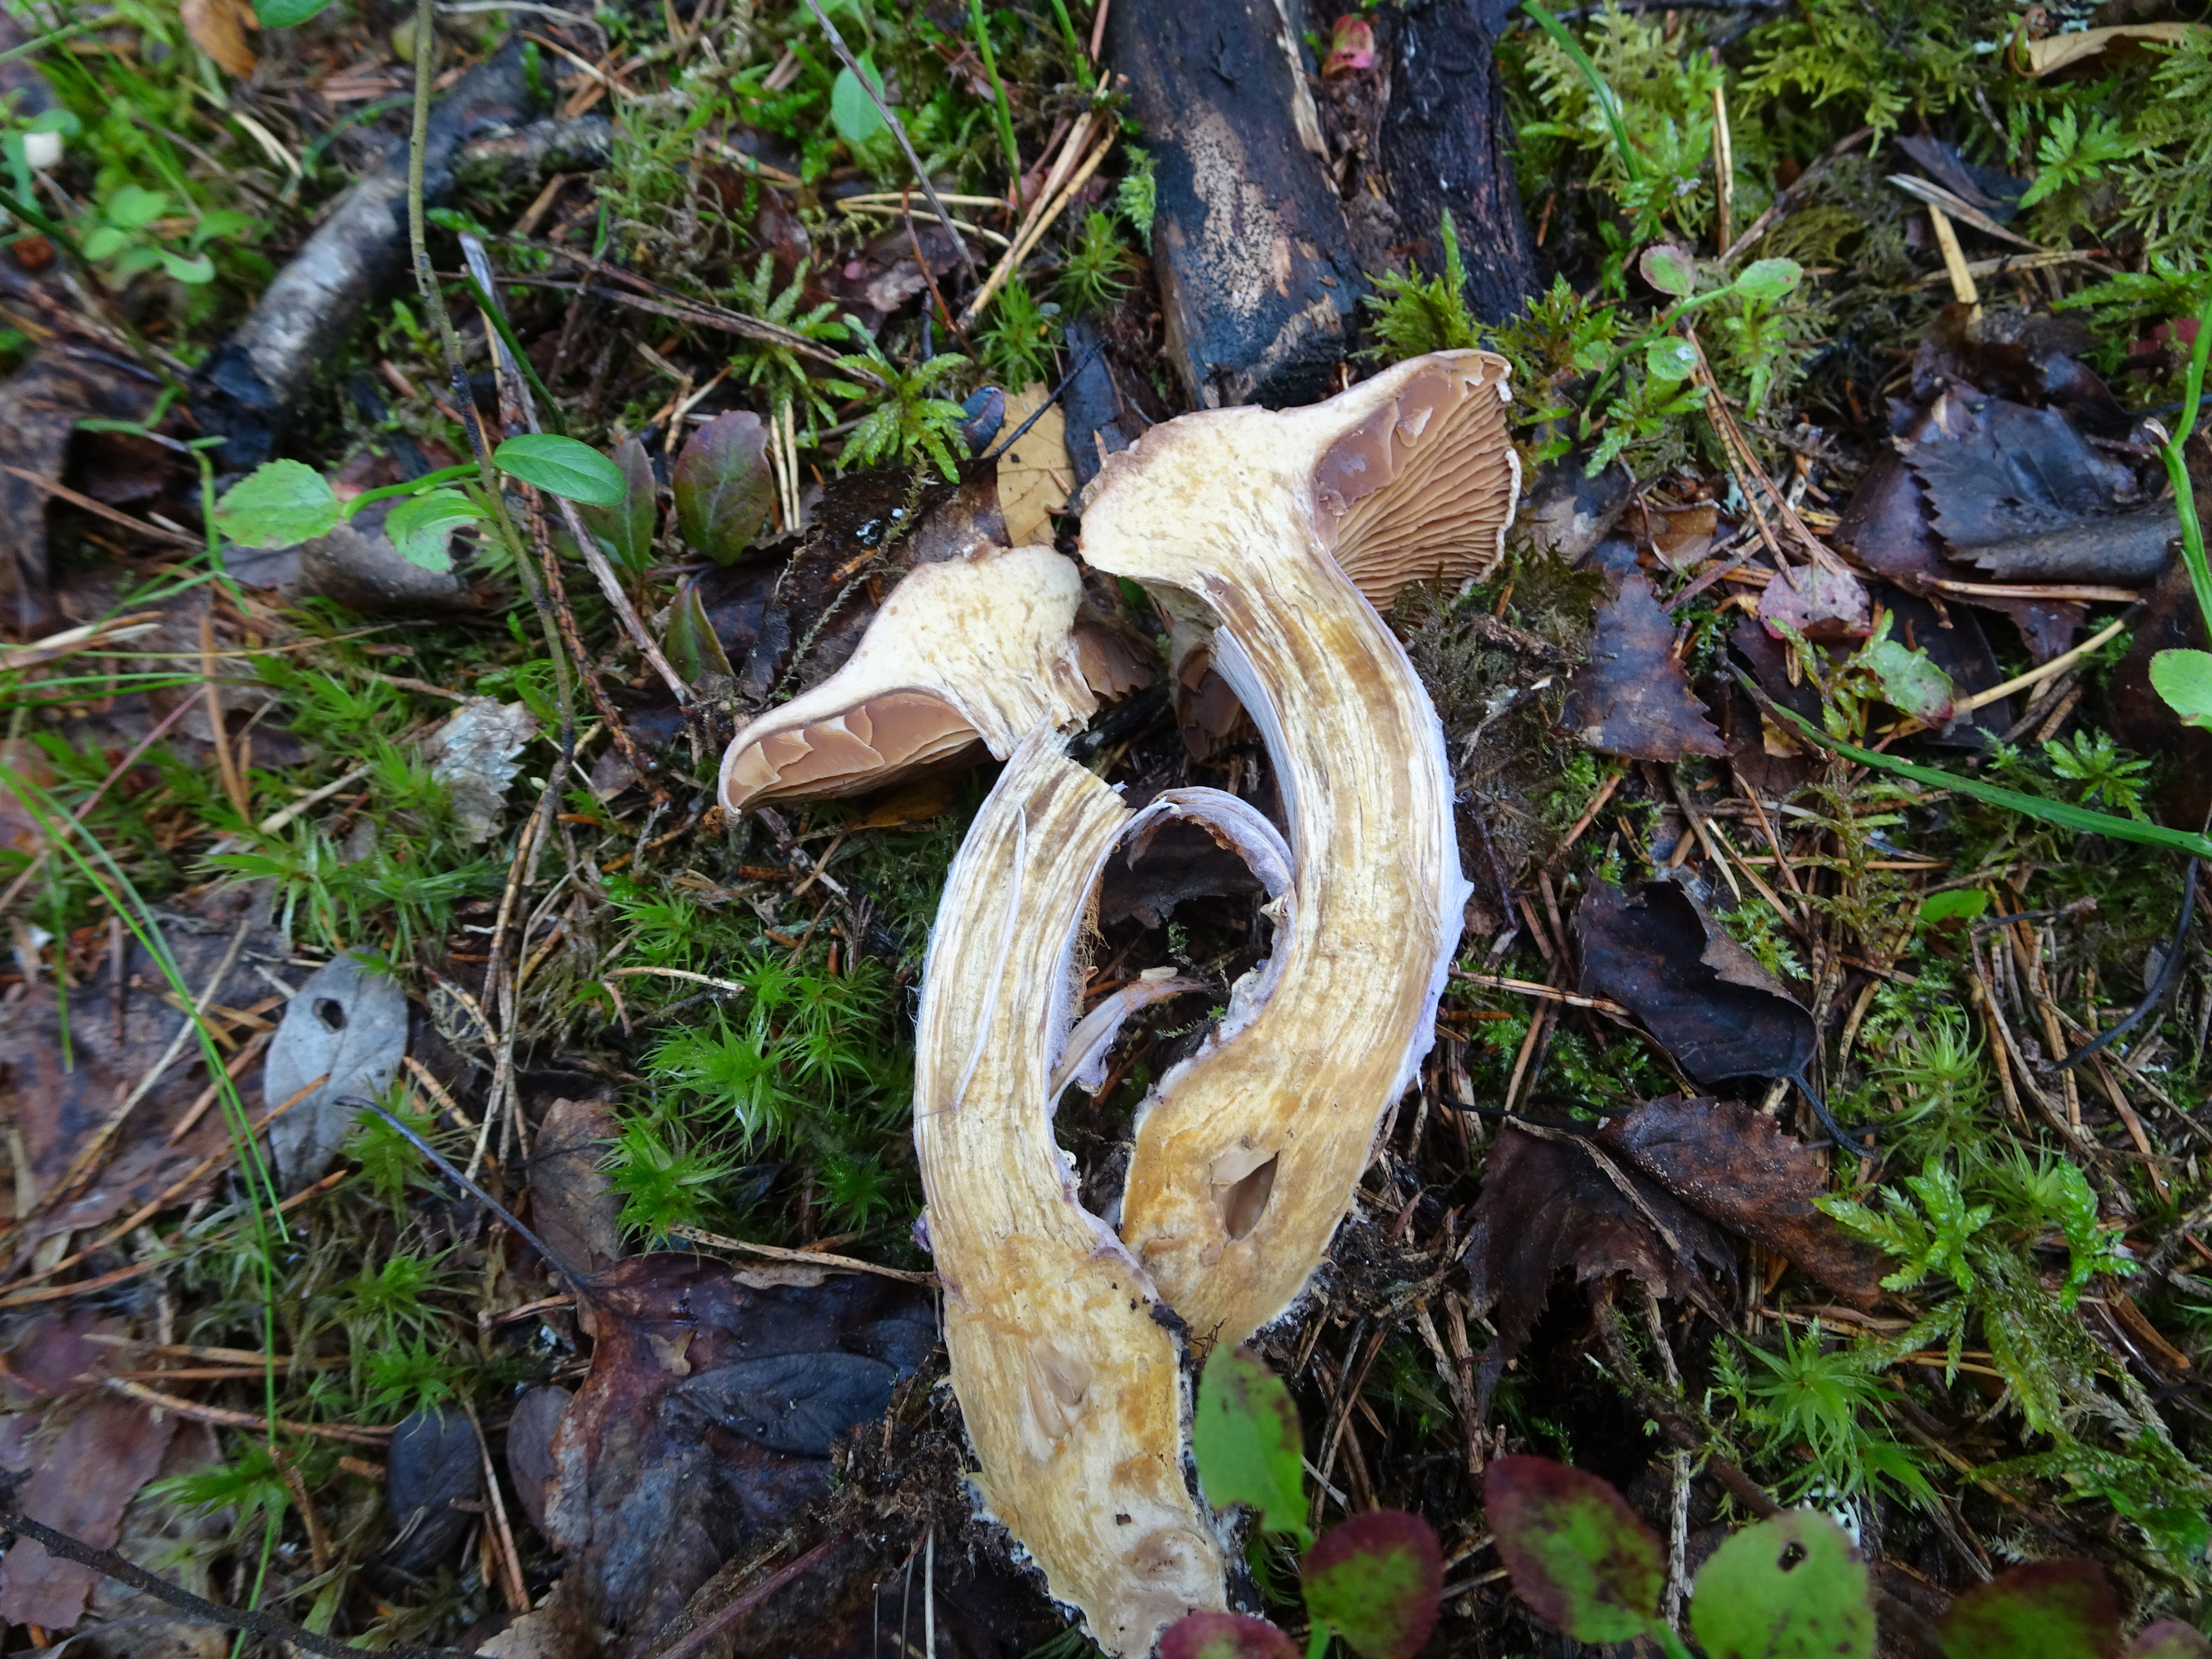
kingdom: Fungi
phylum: Basidiomycota
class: Agaricomycetes
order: Agaricales
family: Cortinariaceae
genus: Cortinarius
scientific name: Cortinarius traganus
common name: Gassy webcap
